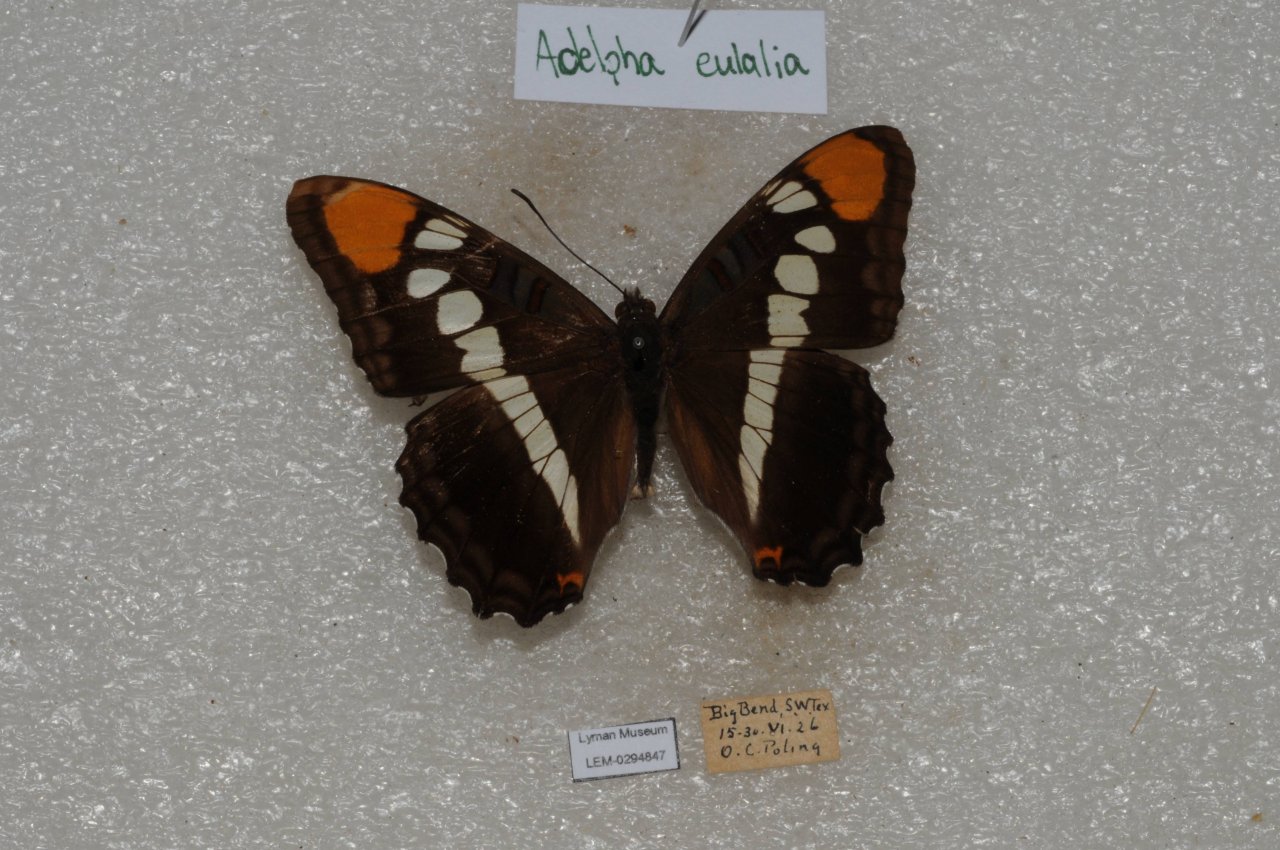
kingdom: Animalia
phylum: Arthropoda
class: Insecta
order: Lepidoptera
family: Nymphalidae
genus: Limenitis
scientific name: Limenitis bredowii
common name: Arizona Sister
